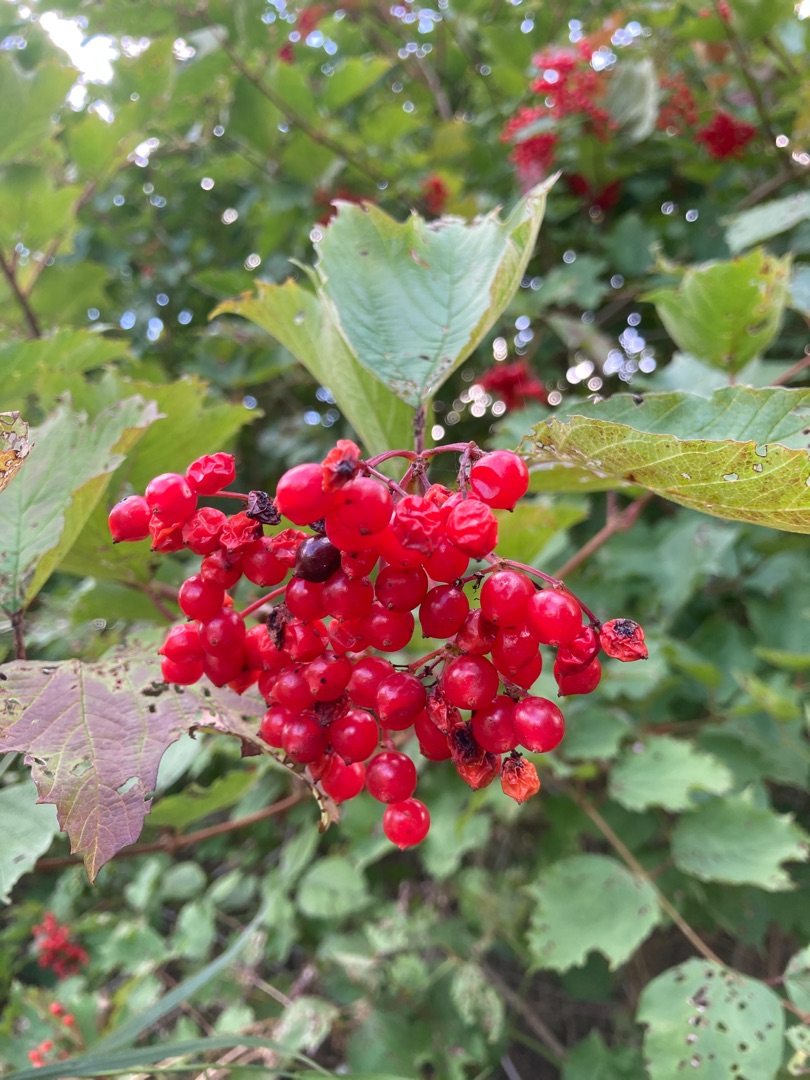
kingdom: Plantae
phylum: Tracheophyta
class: Magnoliopsida
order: Dipsacales
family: Viburnaceae
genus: Viburnum
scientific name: Viburnum opulus
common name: Kvalkved
